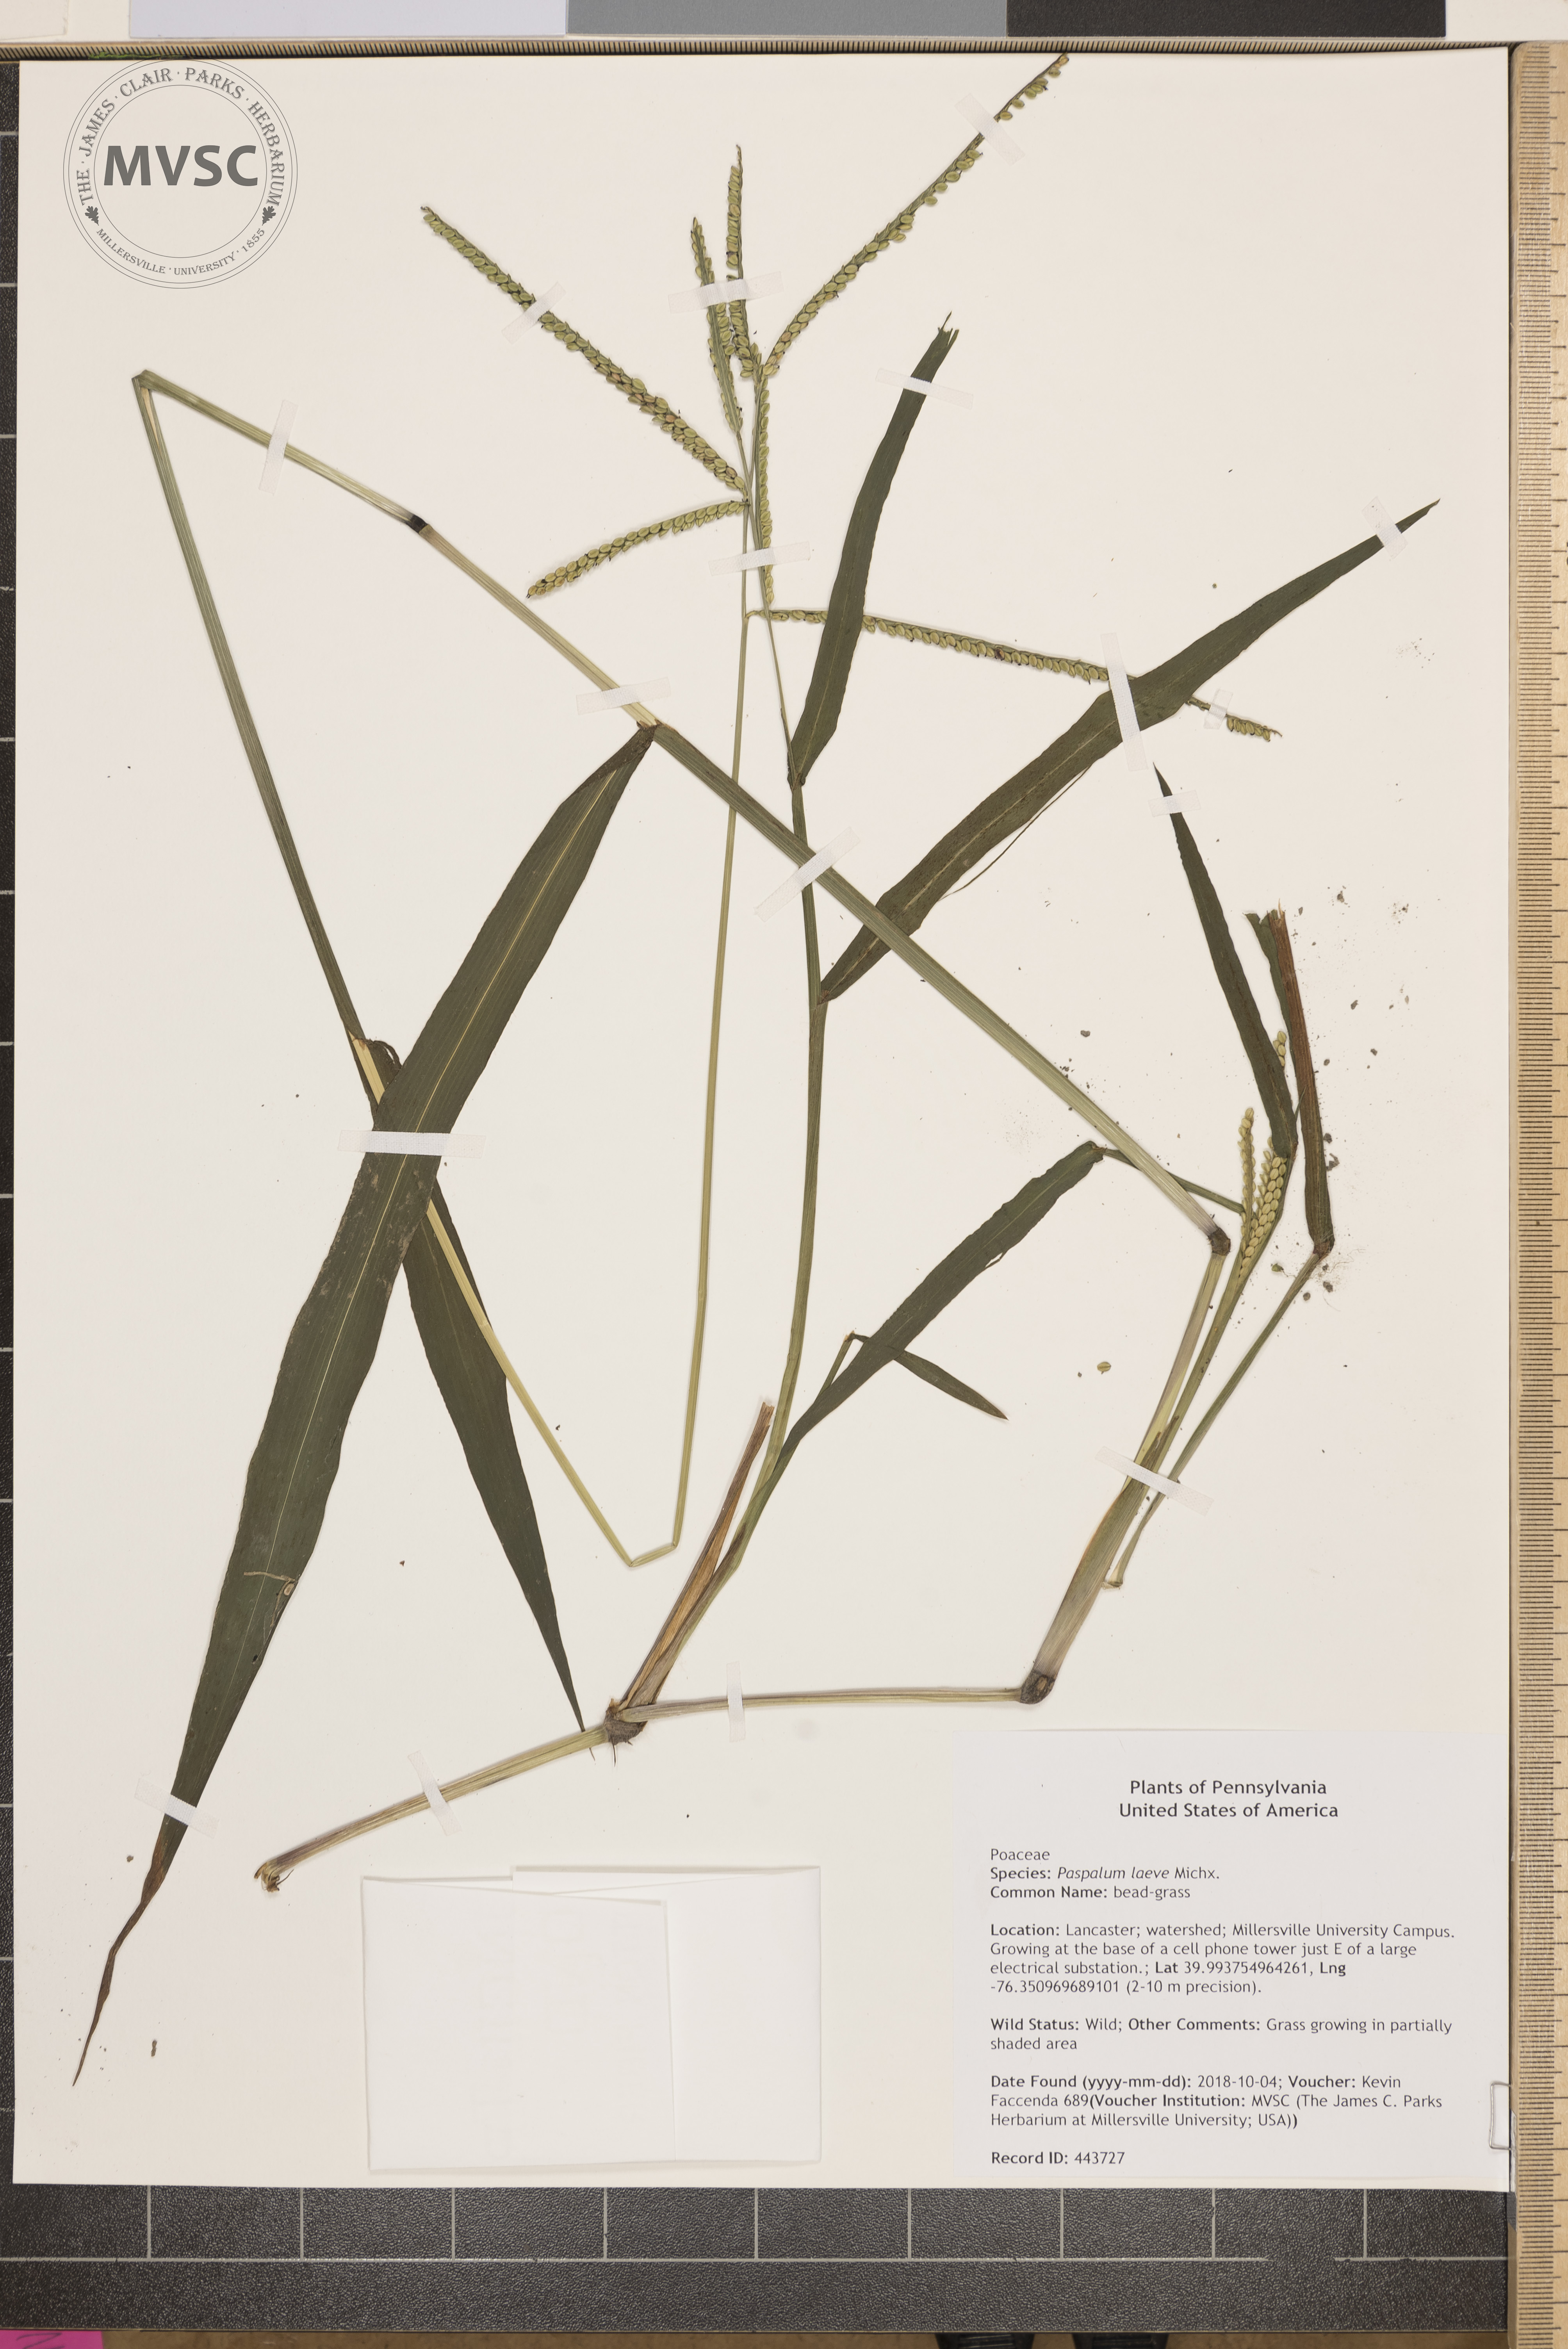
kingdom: Plantae
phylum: Tracheophyta
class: Liliopsida
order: Poales
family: Poaceae
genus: Paspalum
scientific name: Paspalum laeve
